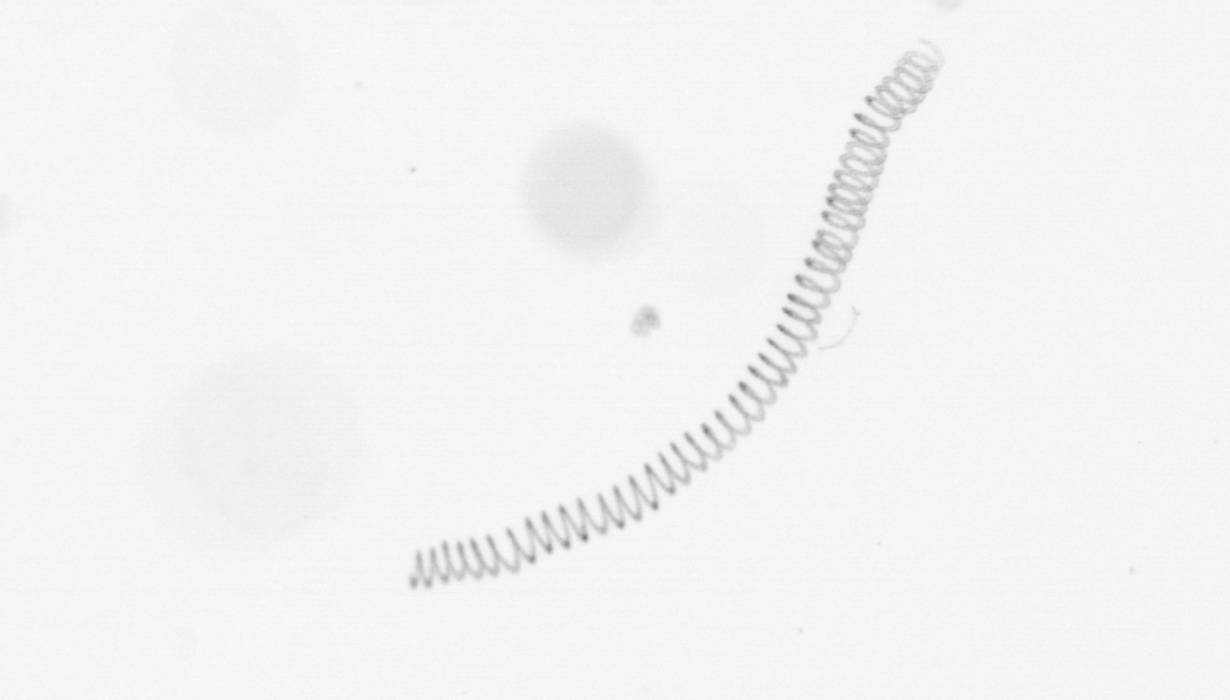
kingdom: Chromista
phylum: Ochrophyta
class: Bacillariophyceae
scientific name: Bacillariophyceae
